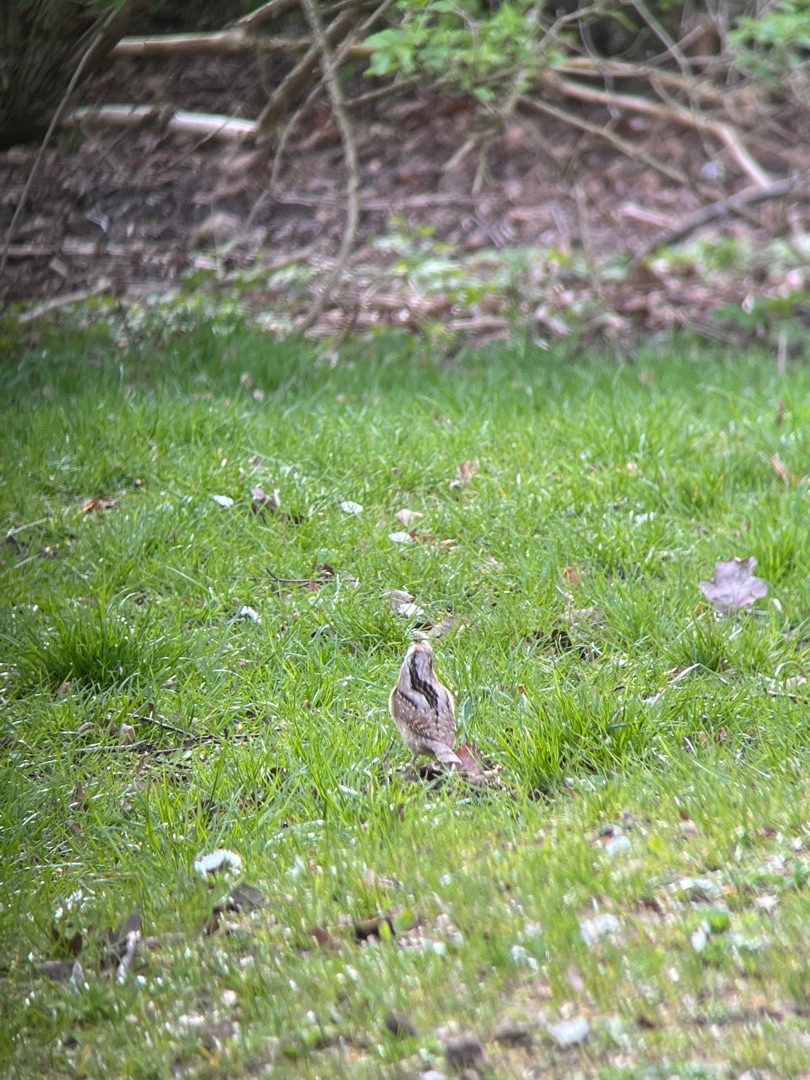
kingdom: Animalia
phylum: Chordata
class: Aves
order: Piciformes
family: Picidae
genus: Jynx
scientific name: Jynx torquilla
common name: Vendehals
